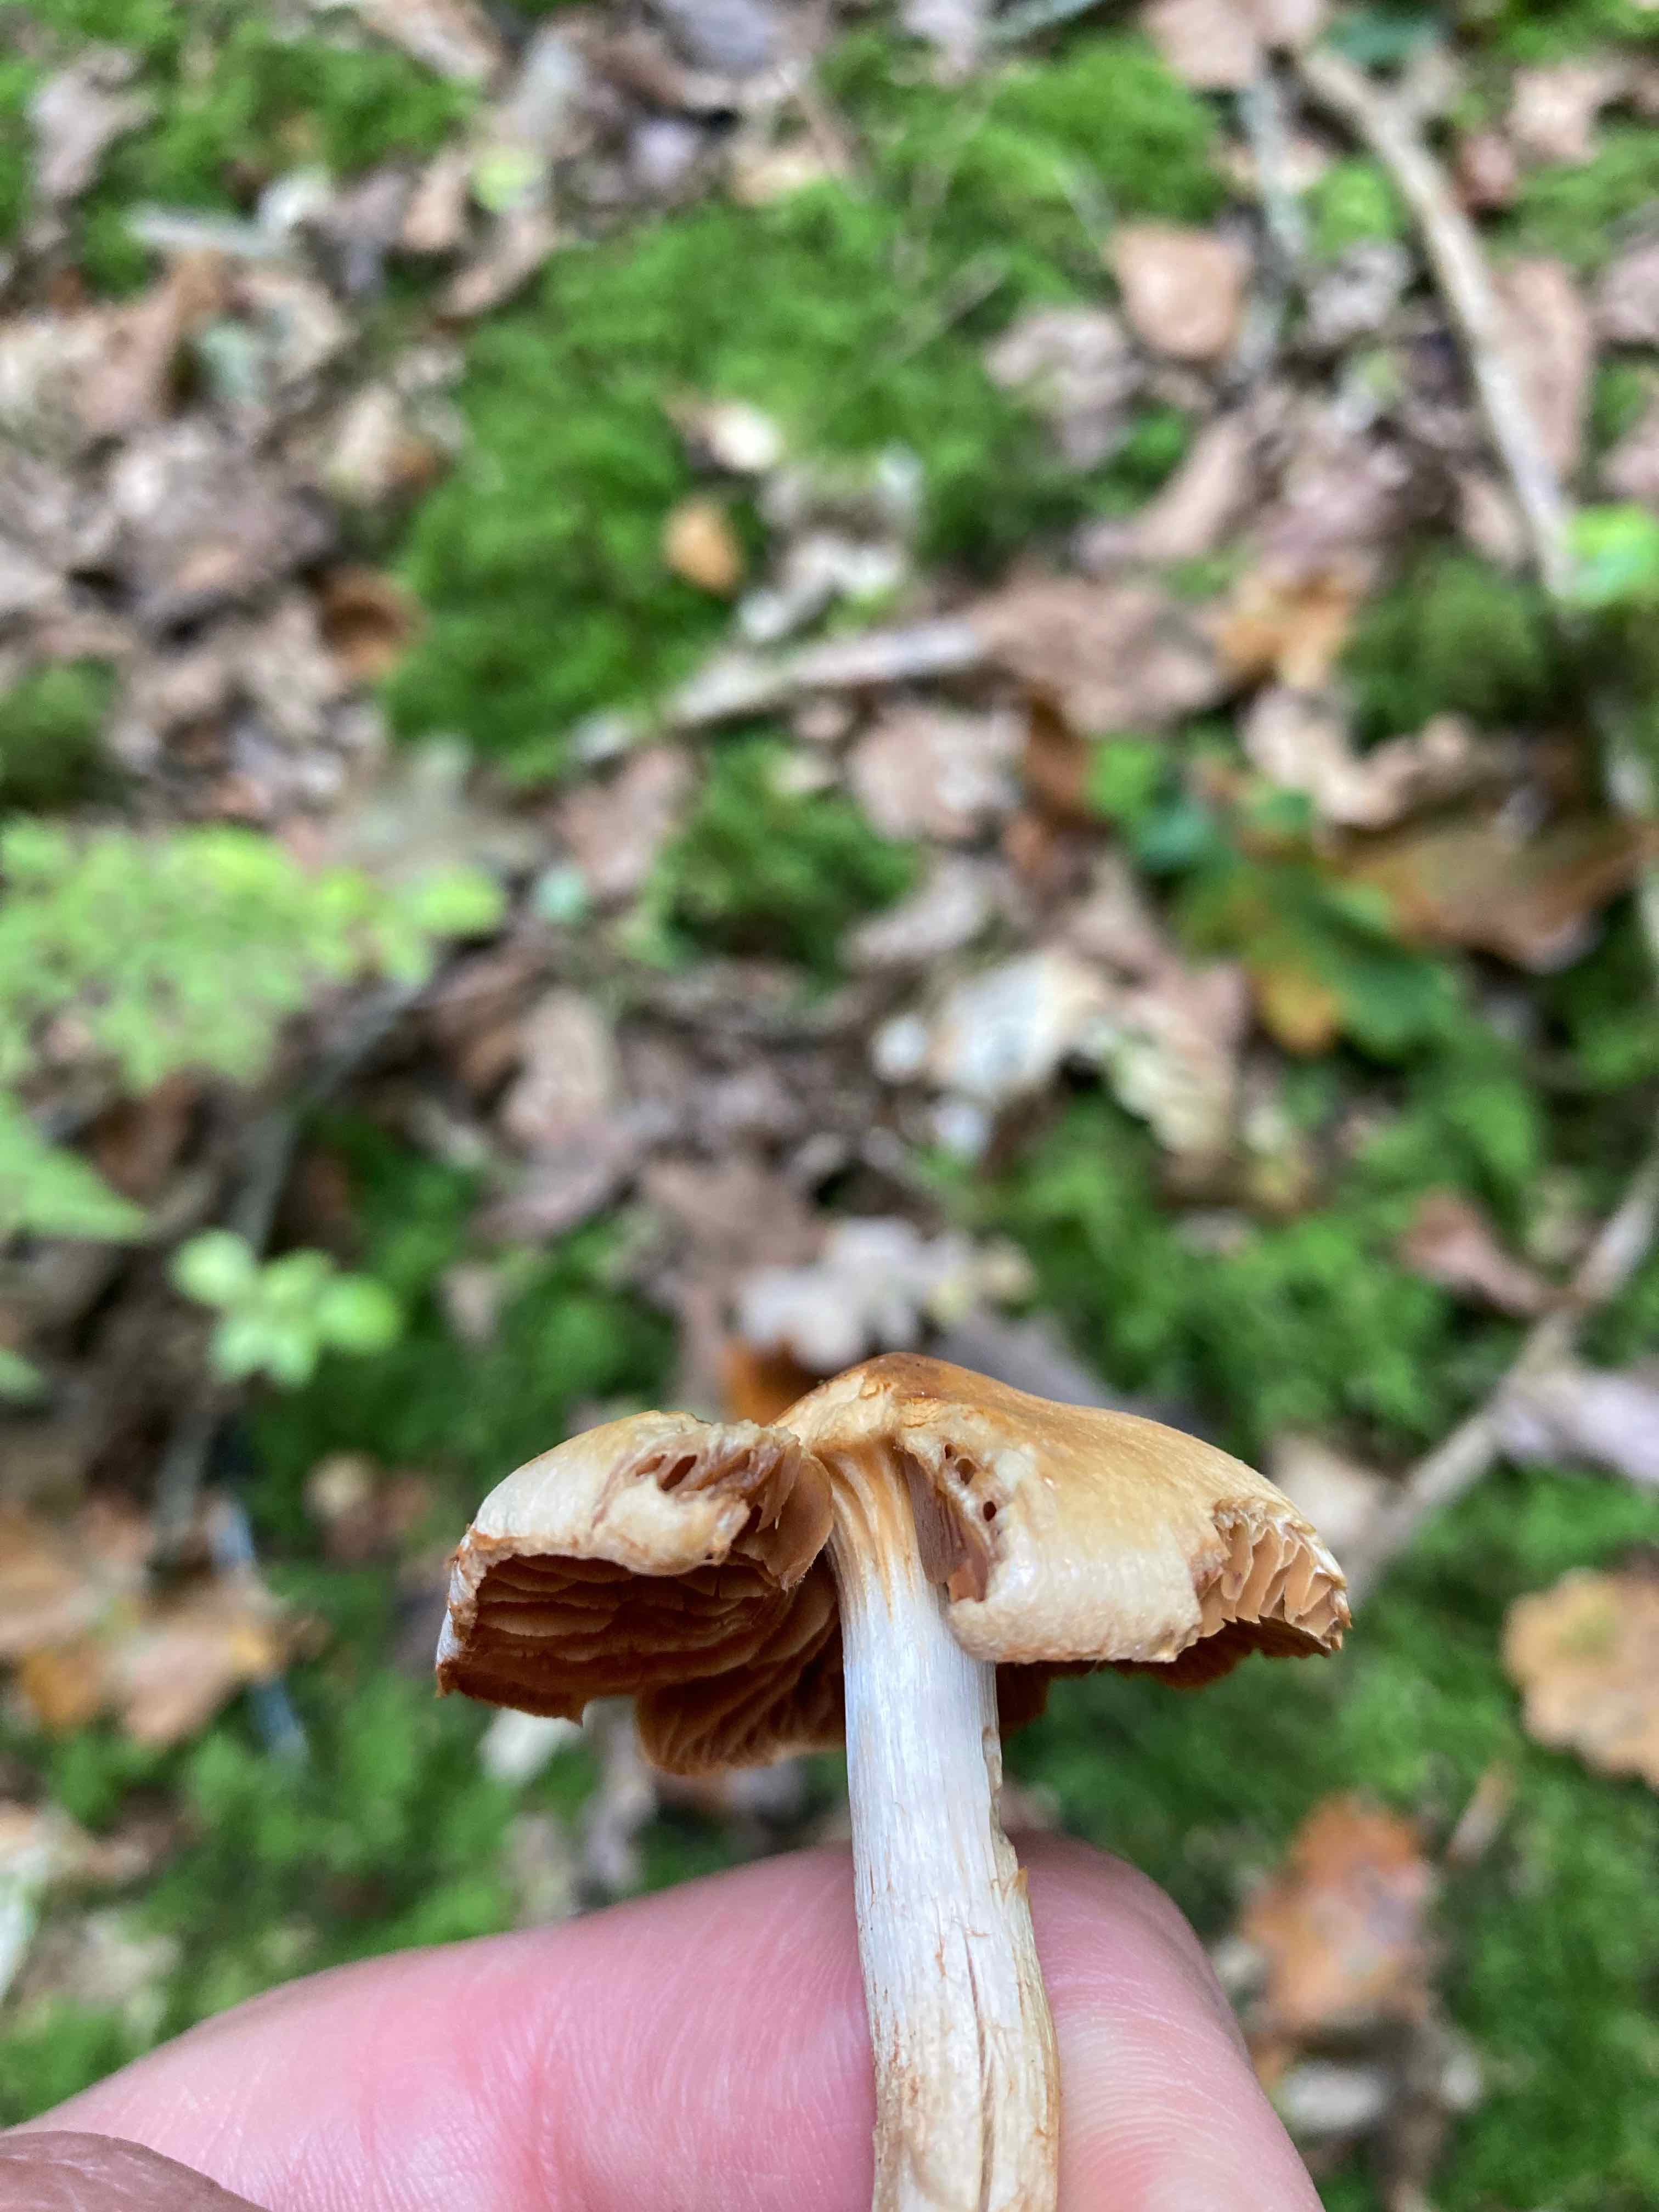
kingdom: Fungi
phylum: Basidiomycota
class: Agaricomycetes
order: Agaricales
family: Cortinariaceae
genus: Cortinarius
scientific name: Cortinarius
